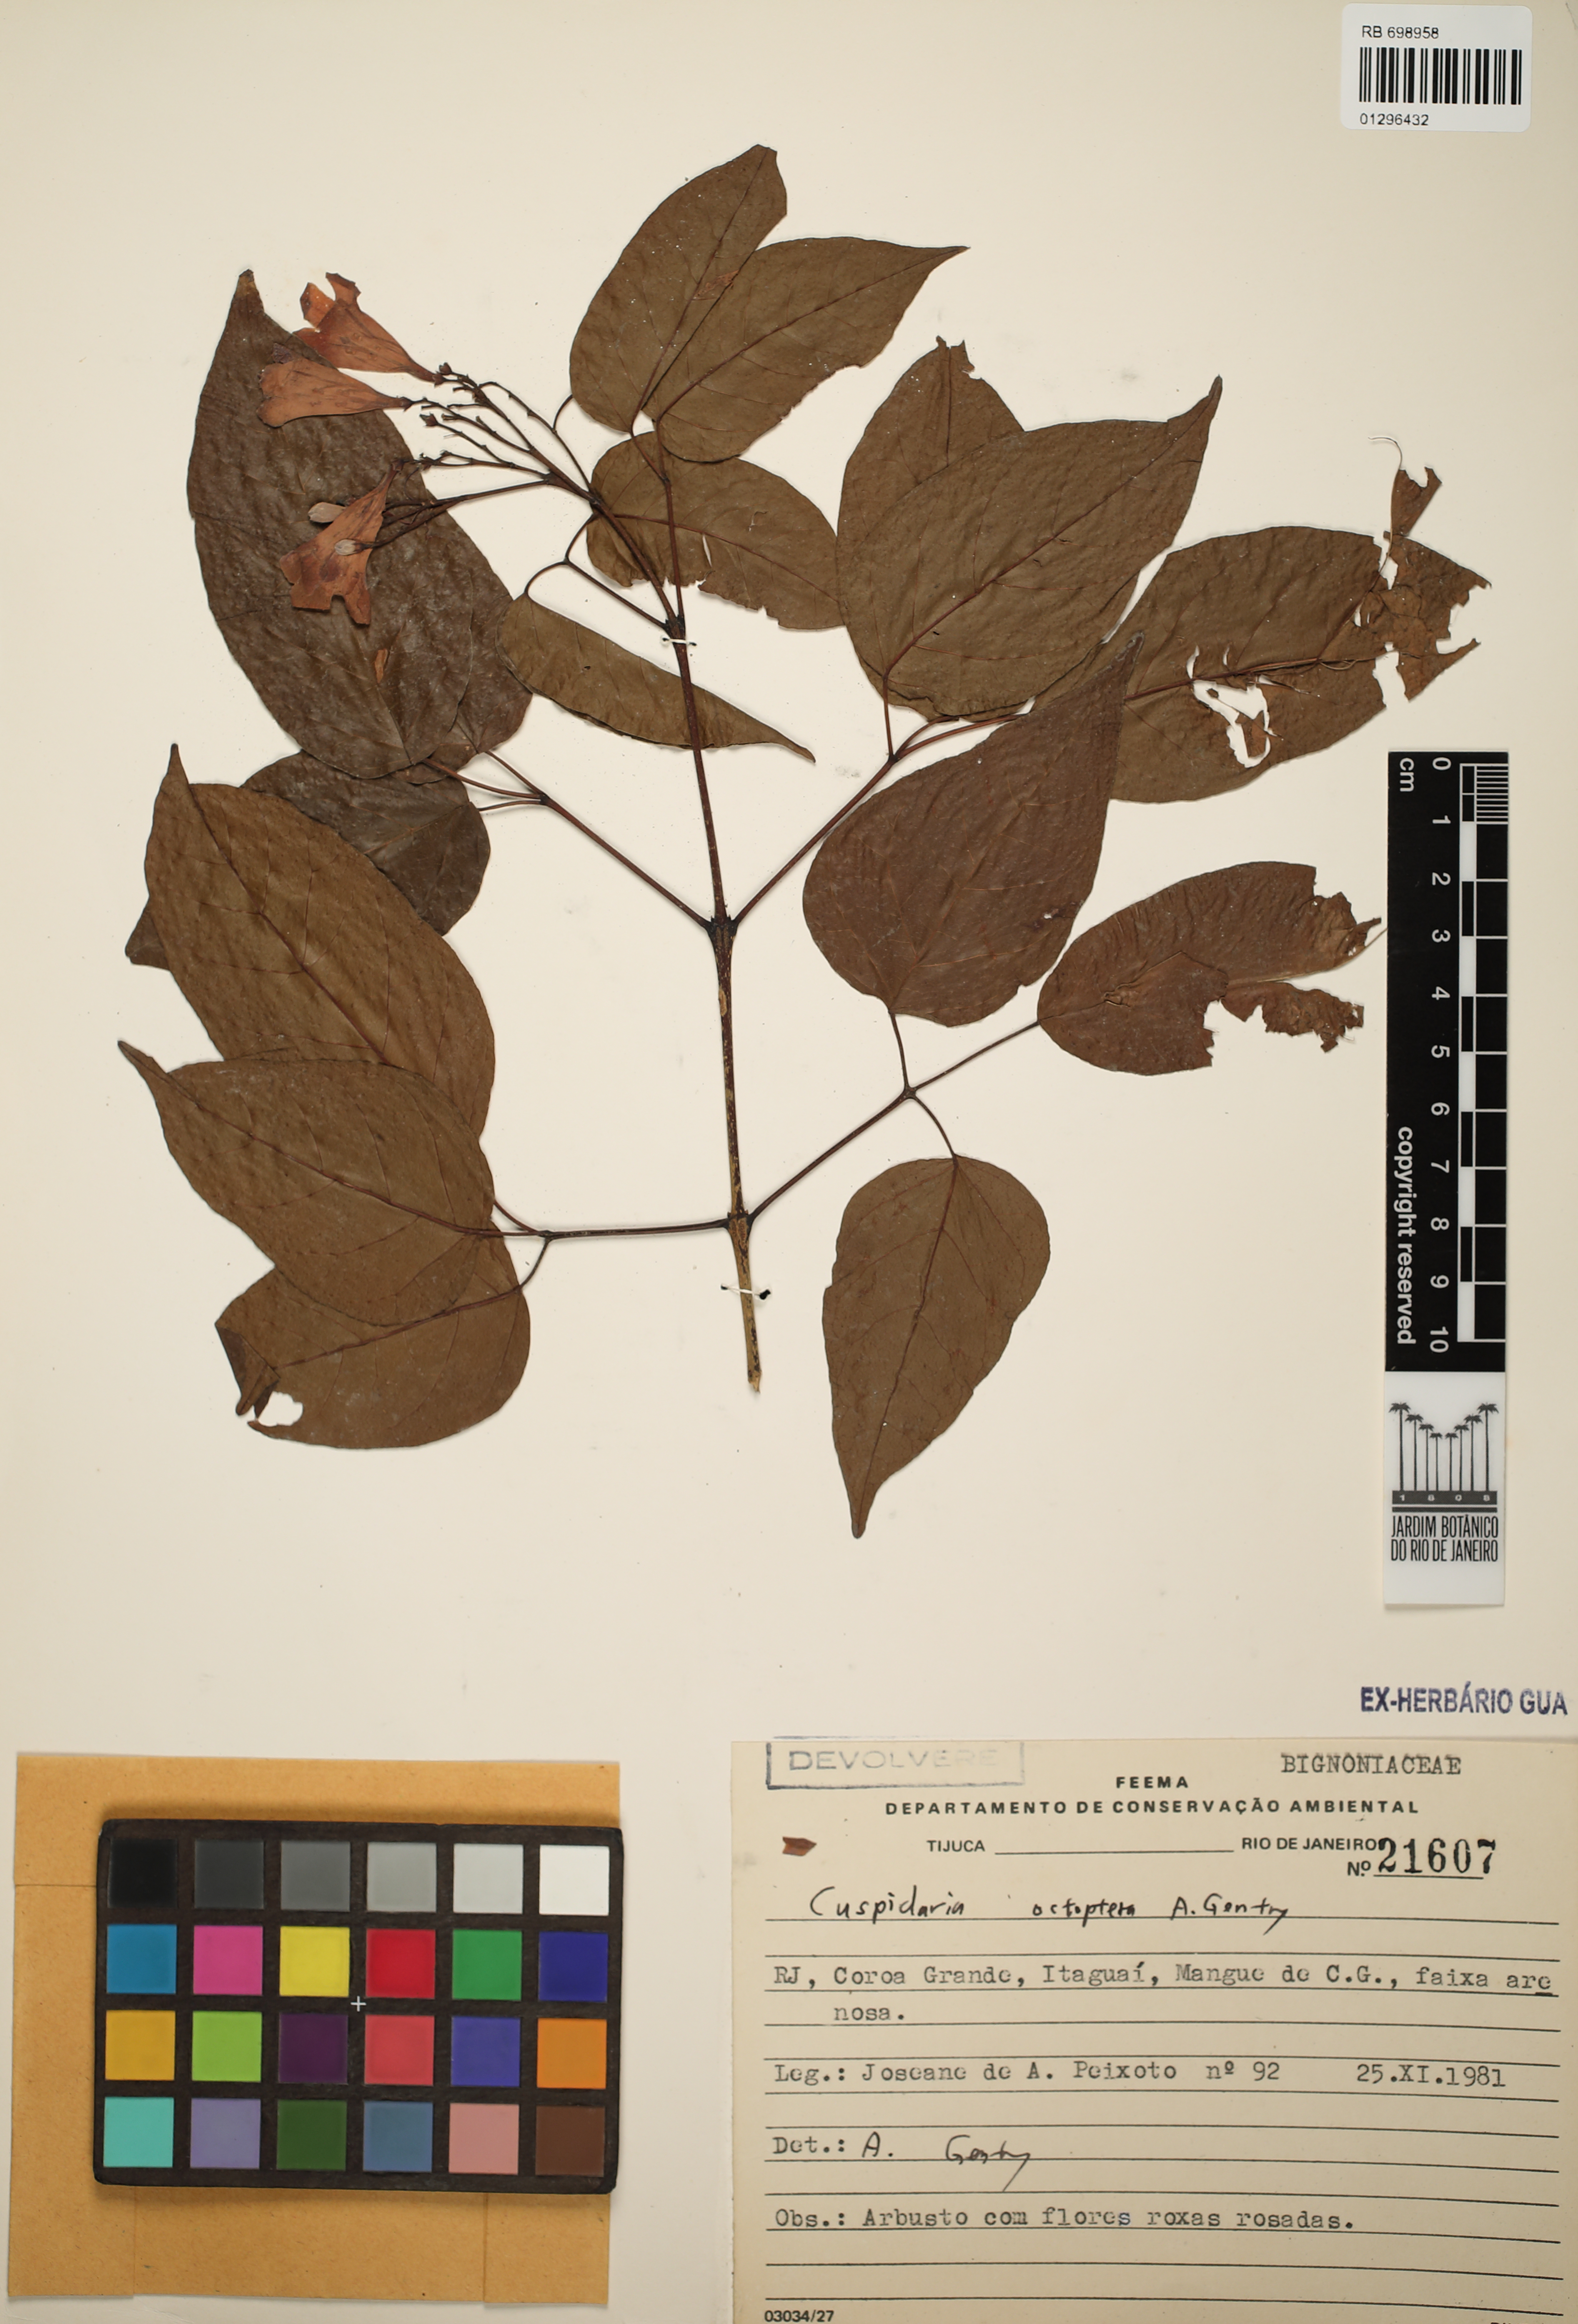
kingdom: Plantae
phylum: Tracheophyta
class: Magnoliopsida
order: Lamiales
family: Bignoniaceae
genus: Cuspidaria
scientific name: Cuspidaria octoptera
